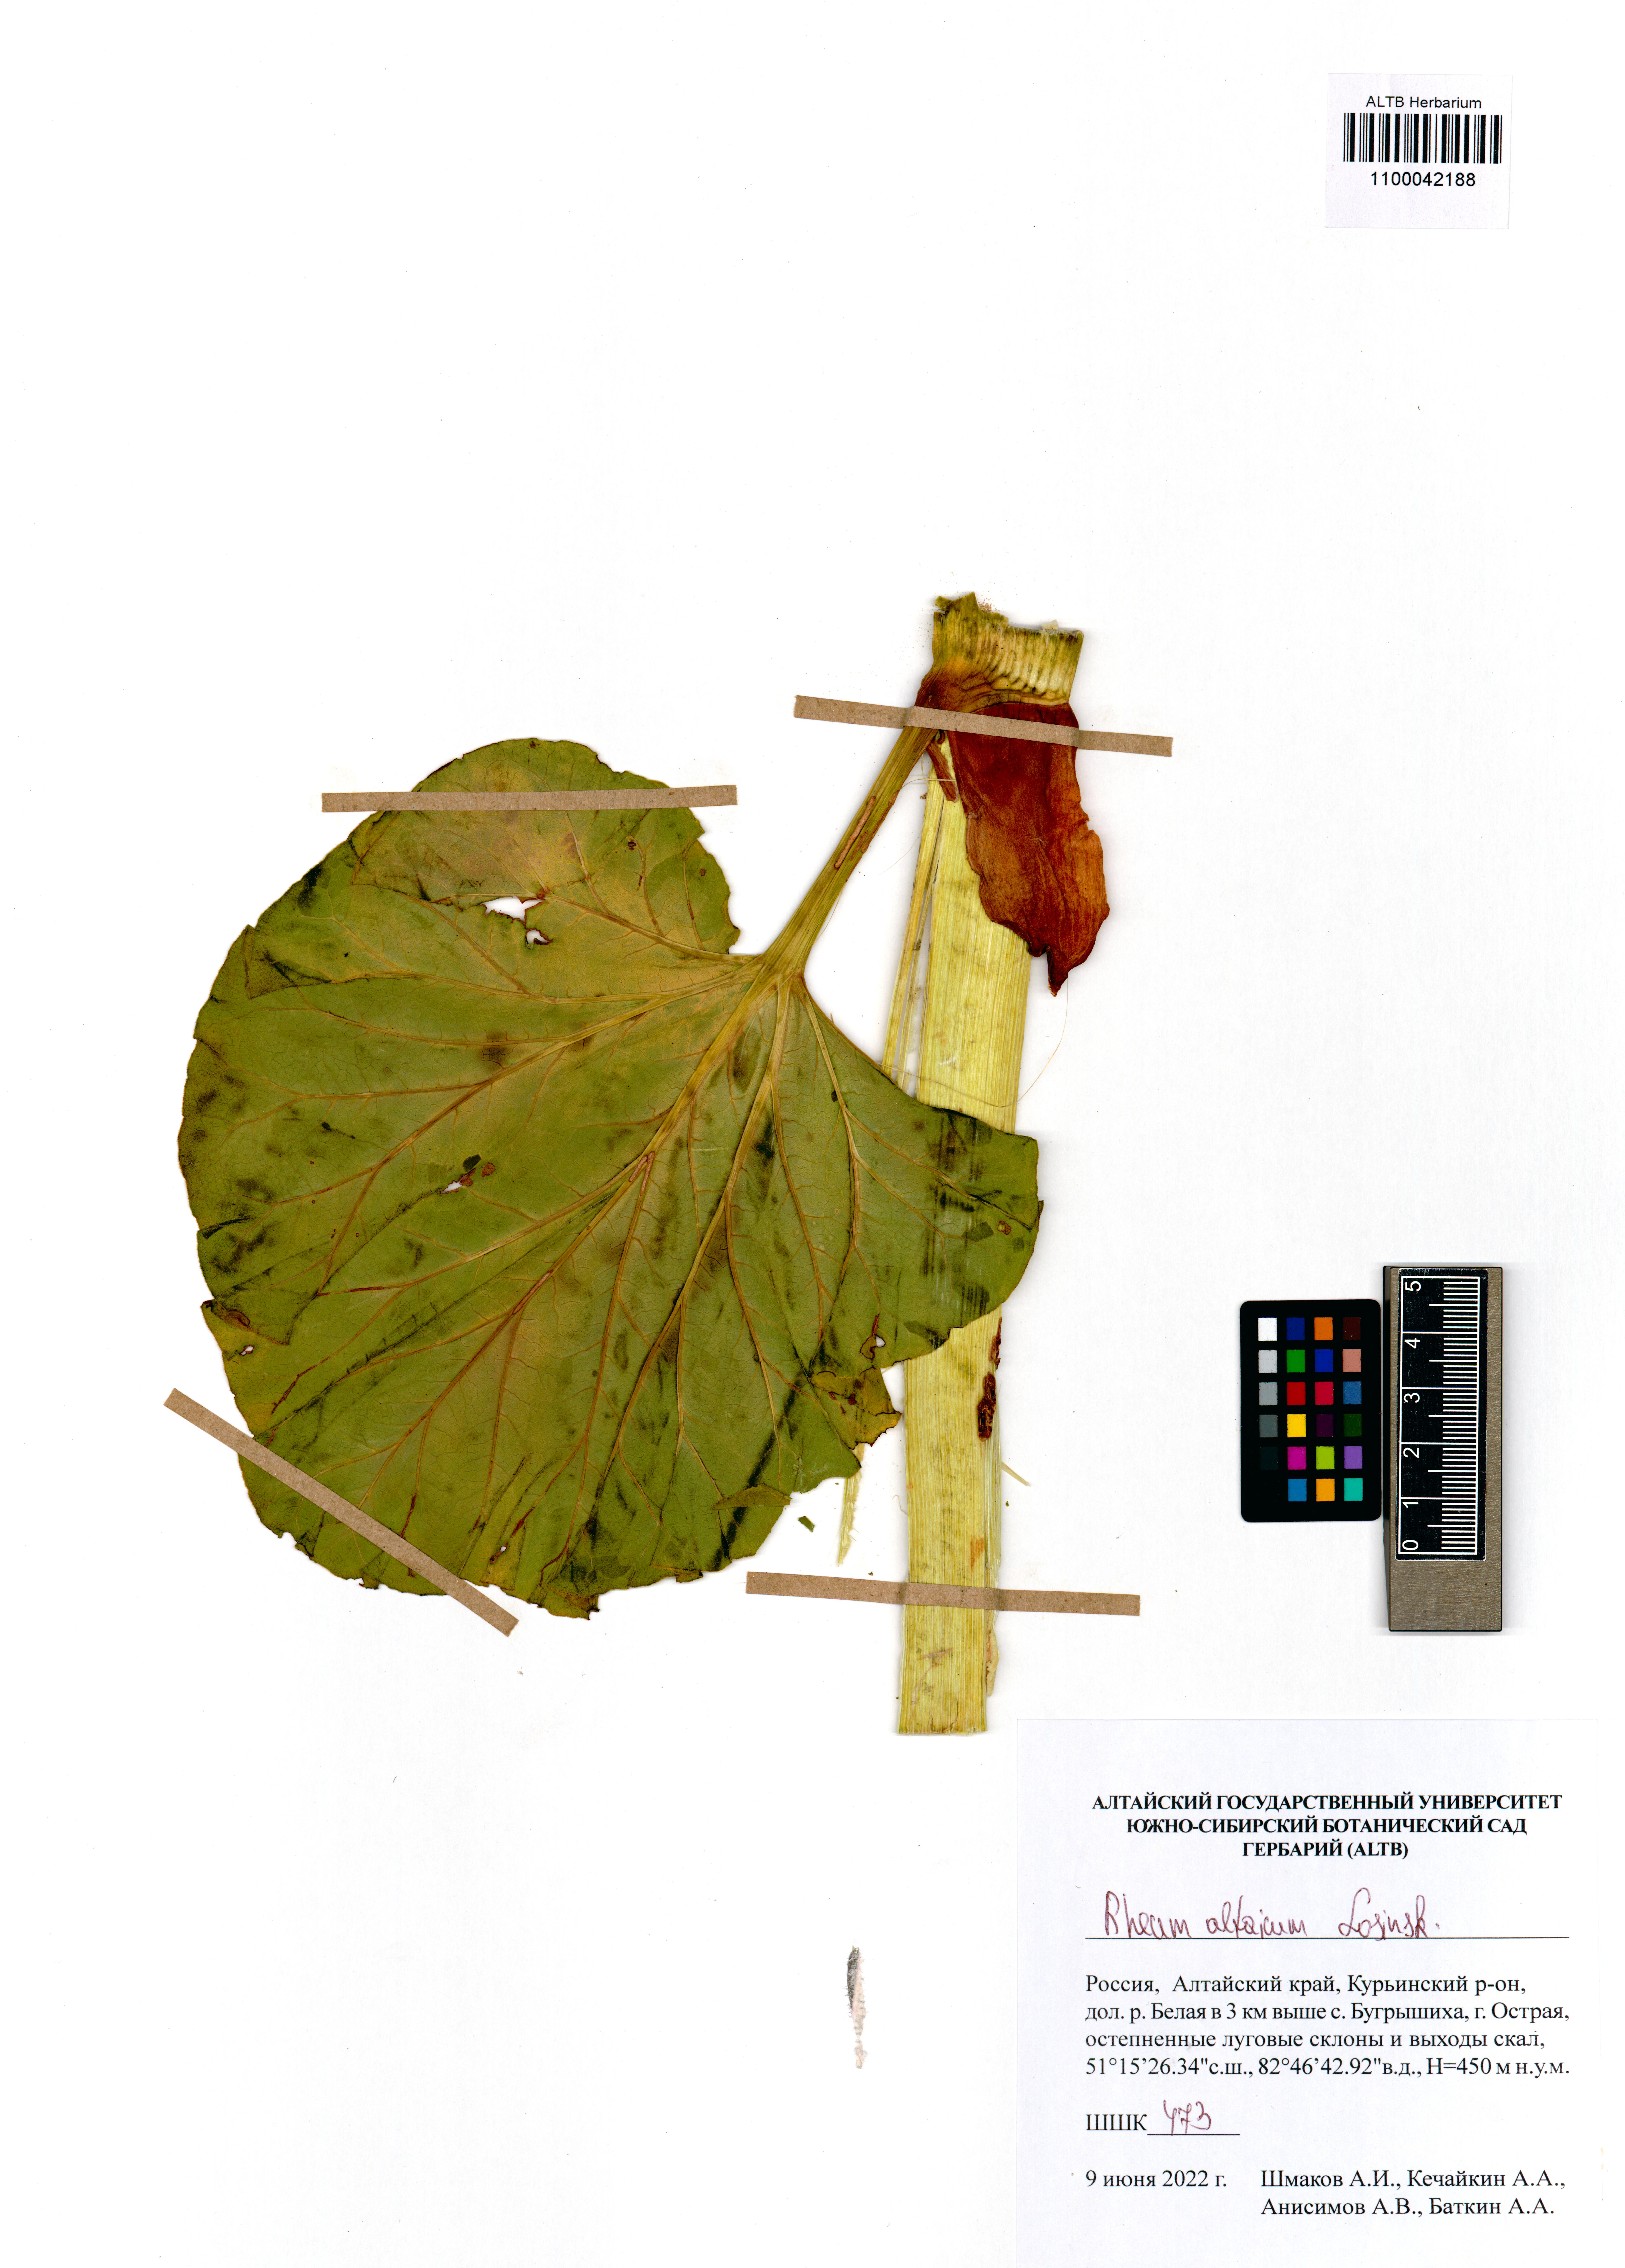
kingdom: Plantae
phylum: Tracheophyta
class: Magnoliopsida
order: Caryophyllales
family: Polygonaceae
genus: Rheum
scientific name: Rheum compactum
